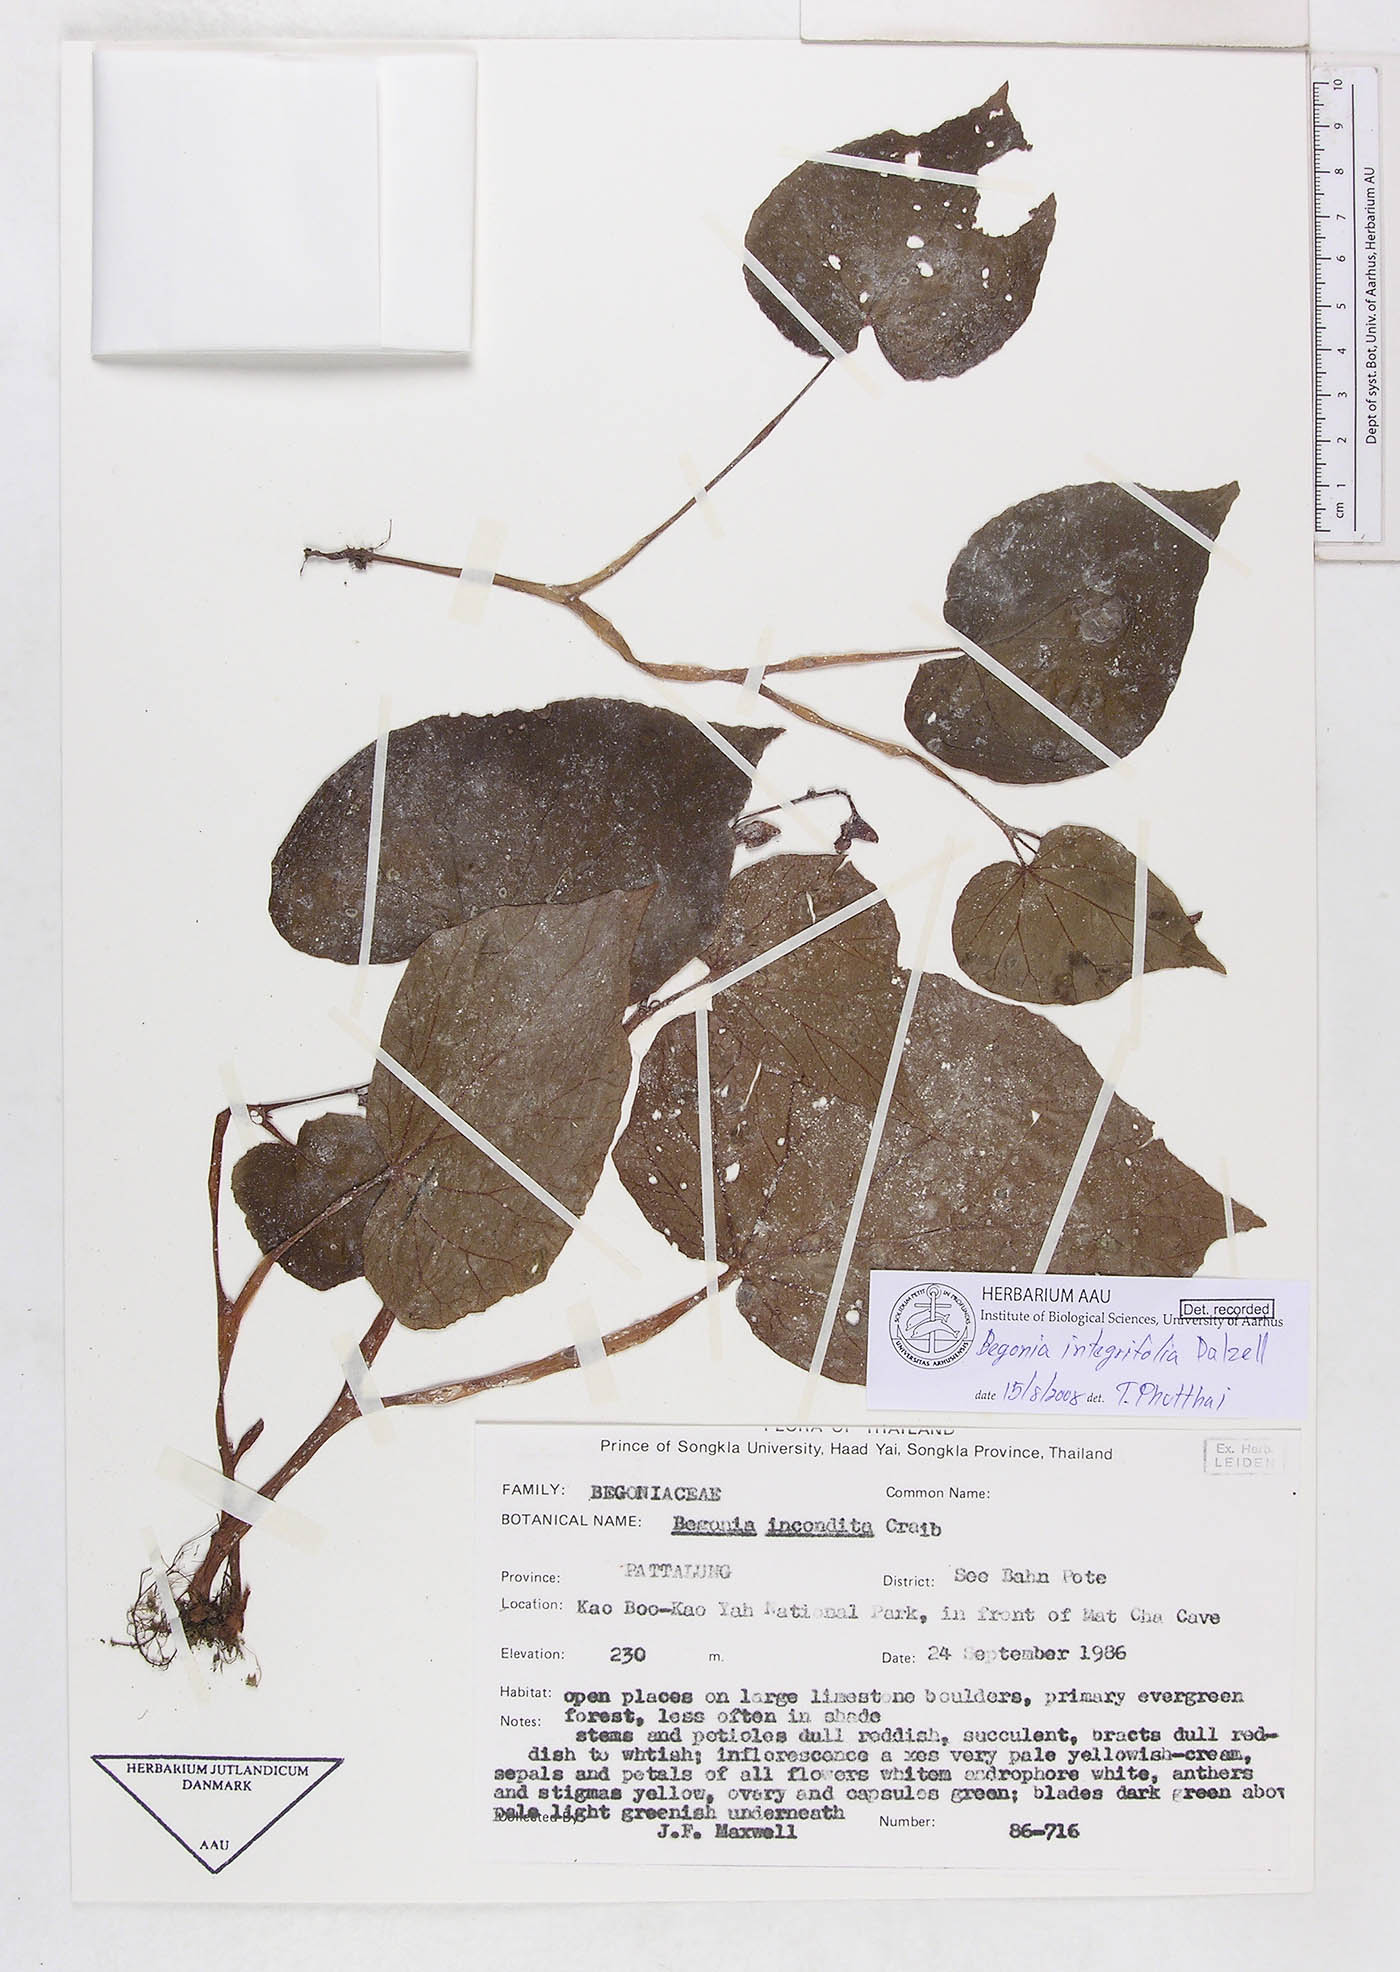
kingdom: Plantae
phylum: Tracheophyta
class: Magnoliopsida
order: Cucurbitales
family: Begoniaceae
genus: Begonia
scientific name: Begonia integrifolia
